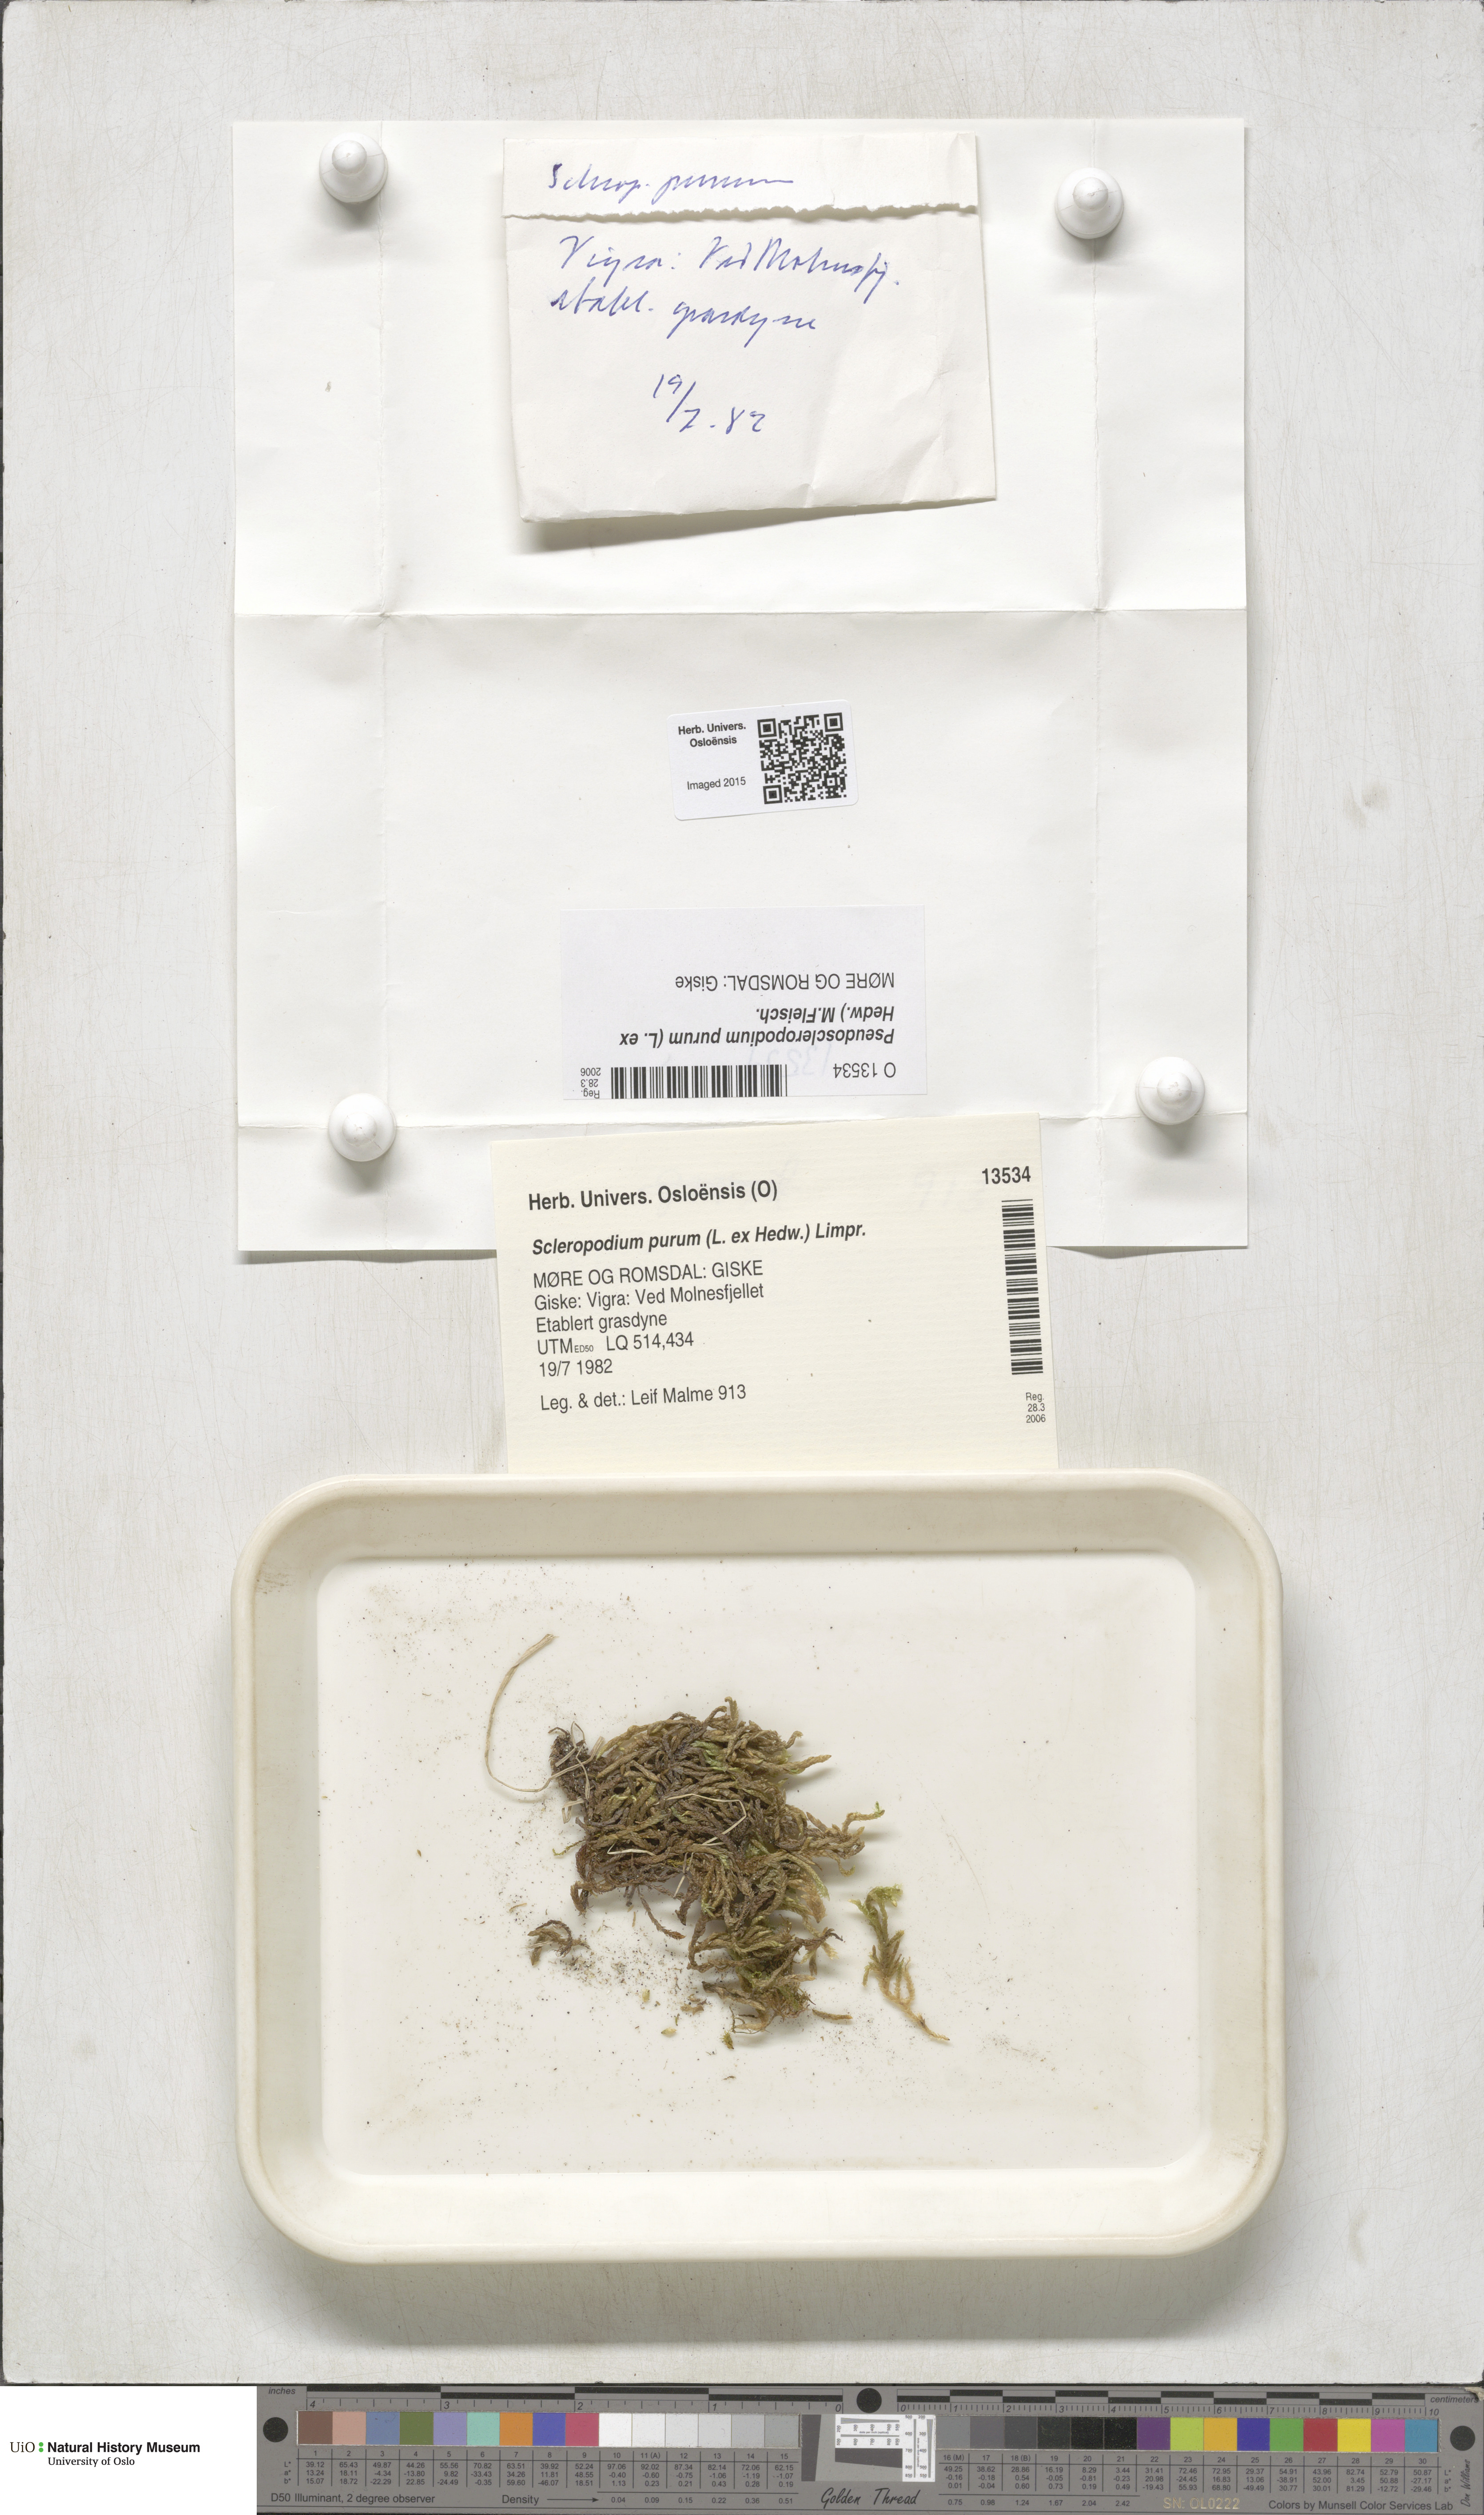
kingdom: Plantae
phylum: Bryophyta
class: Bryopsida
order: Hypnales
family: Brachytheciaceae
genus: Pseudoscleropodium
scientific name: Pseudoscleropodium purum
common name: Neat feather-moss
